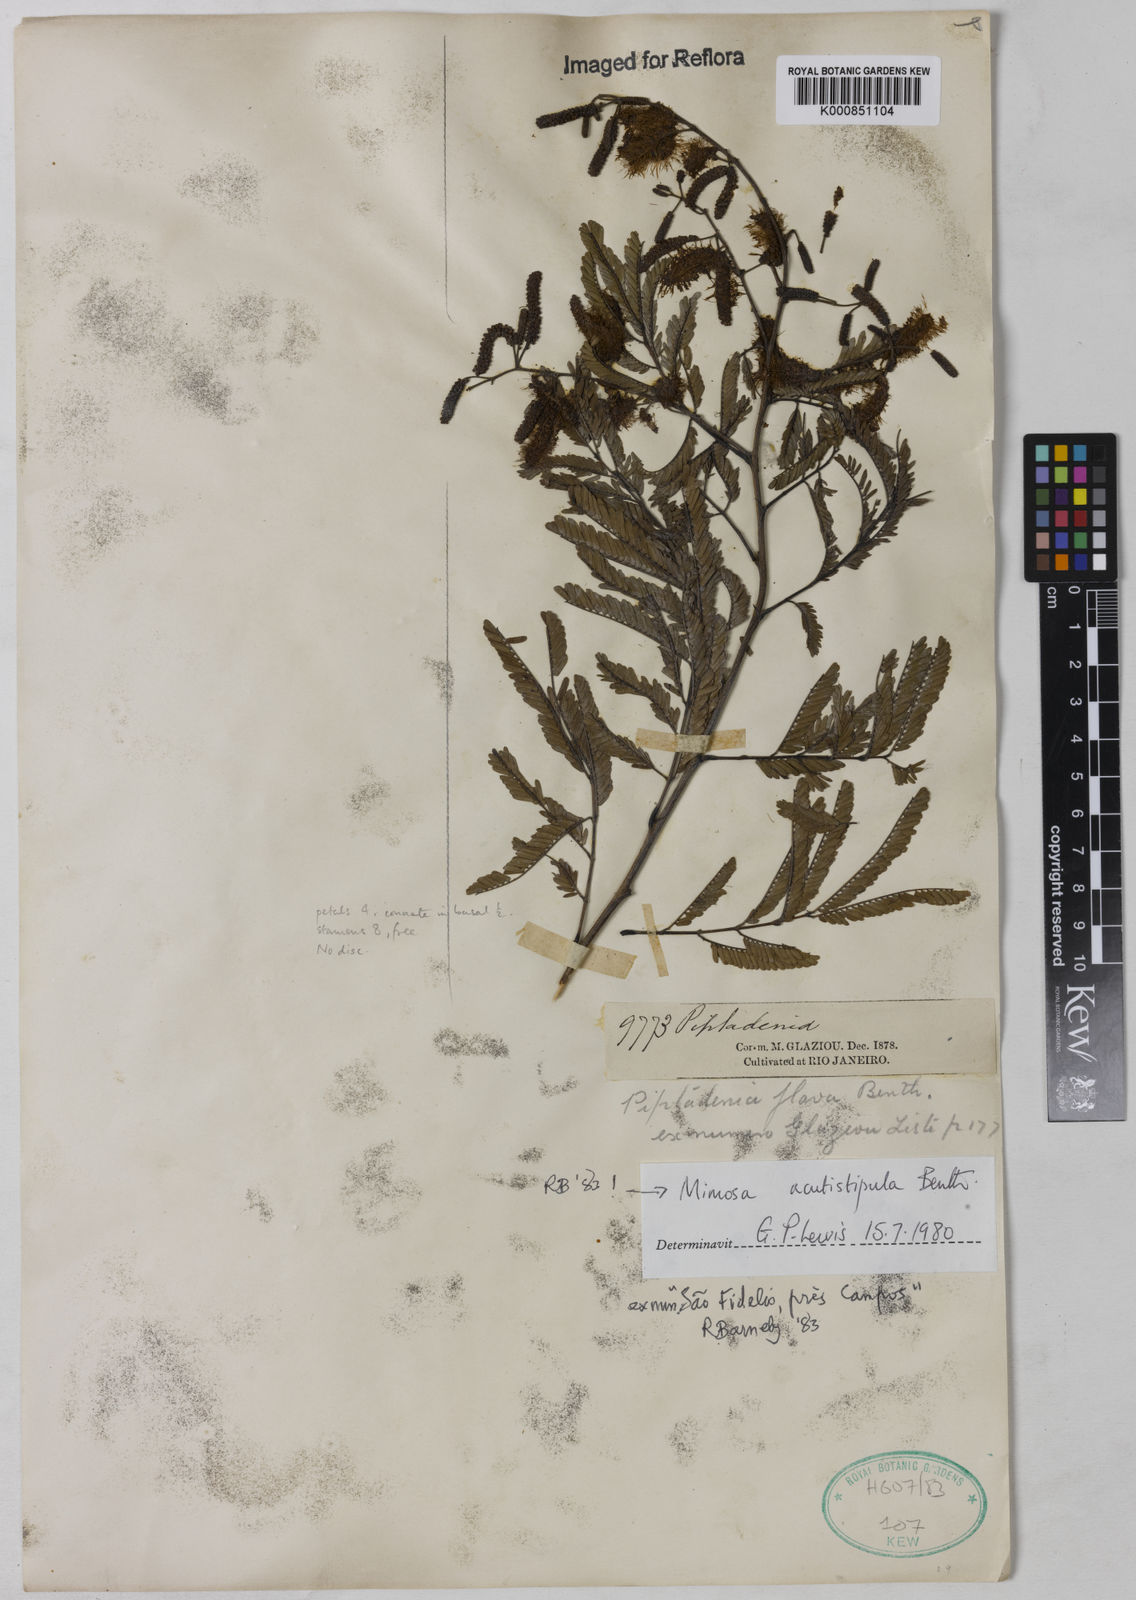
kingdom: Plantae
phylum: Tracheophyta
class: Magnoliopsida
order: Fabales
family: Fabaceae
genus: Mimosa
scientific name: Mimosa acutistipula
